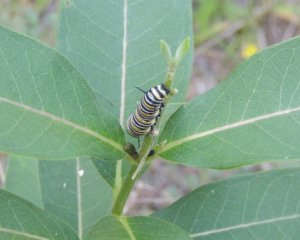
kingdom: Animalia
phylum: Arthropoda
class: Insecta
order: Lepidoptera
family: Nymphalidae
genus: Danaus
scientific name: Danaus plexippus
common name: Monarch
